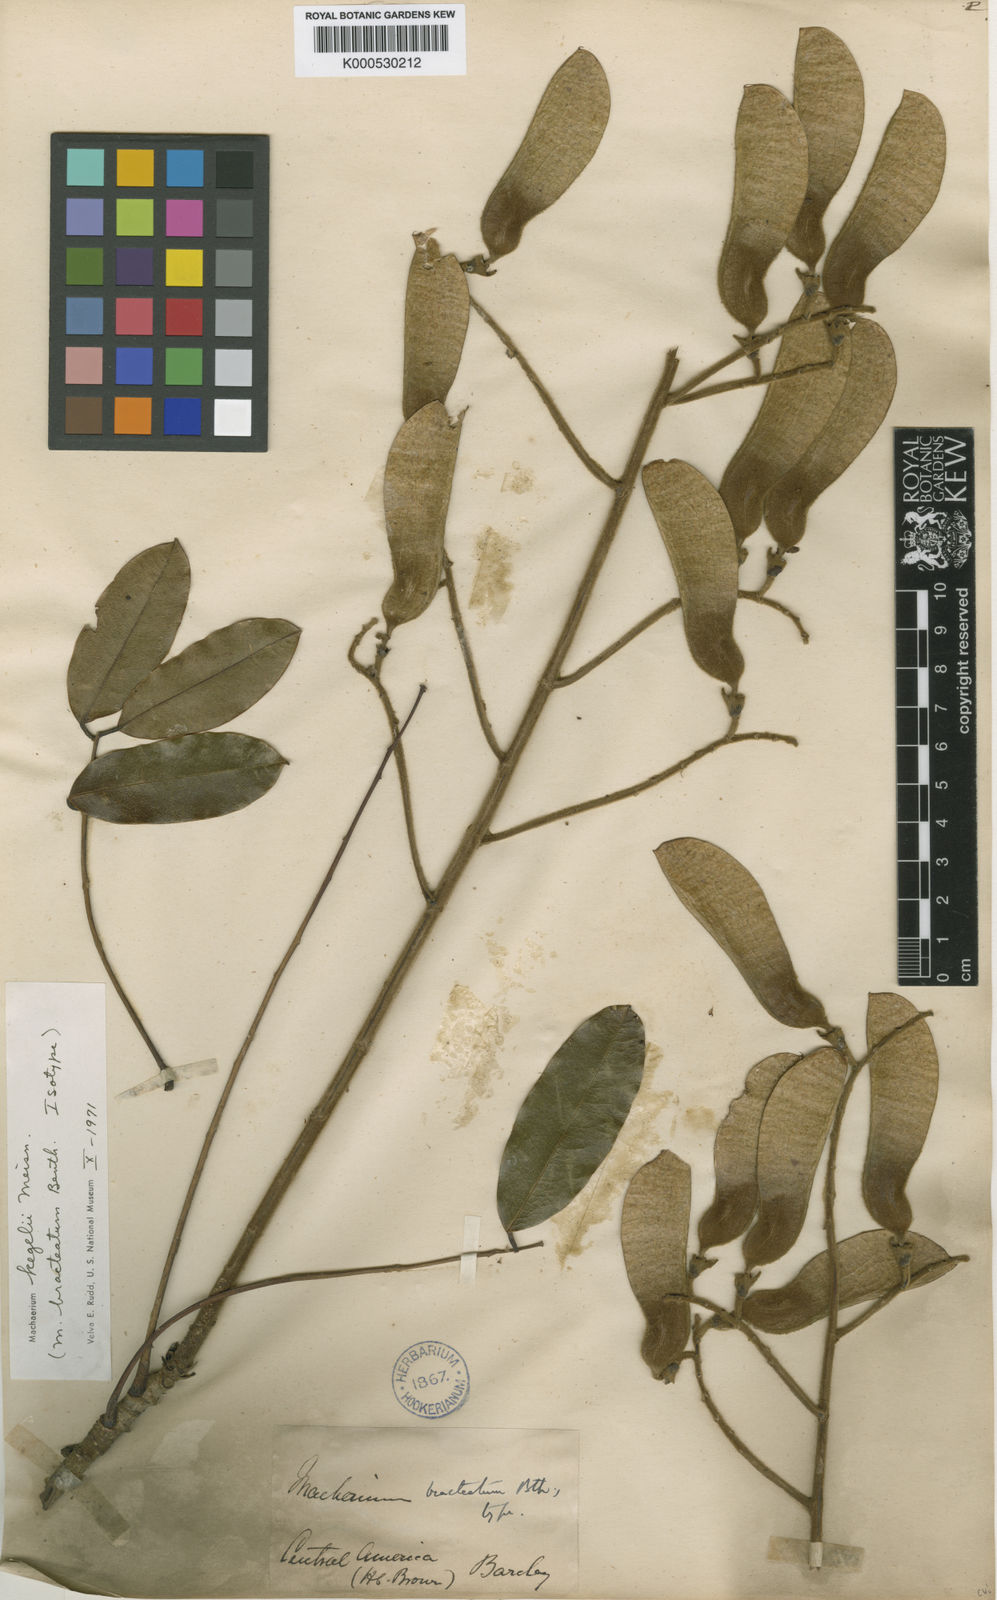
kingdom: Plantae
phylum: Tracheophyta
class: Magnoliopsida
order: Fabales
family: Fabaceae
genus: Machaerium
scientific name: Machaerium kegelii
